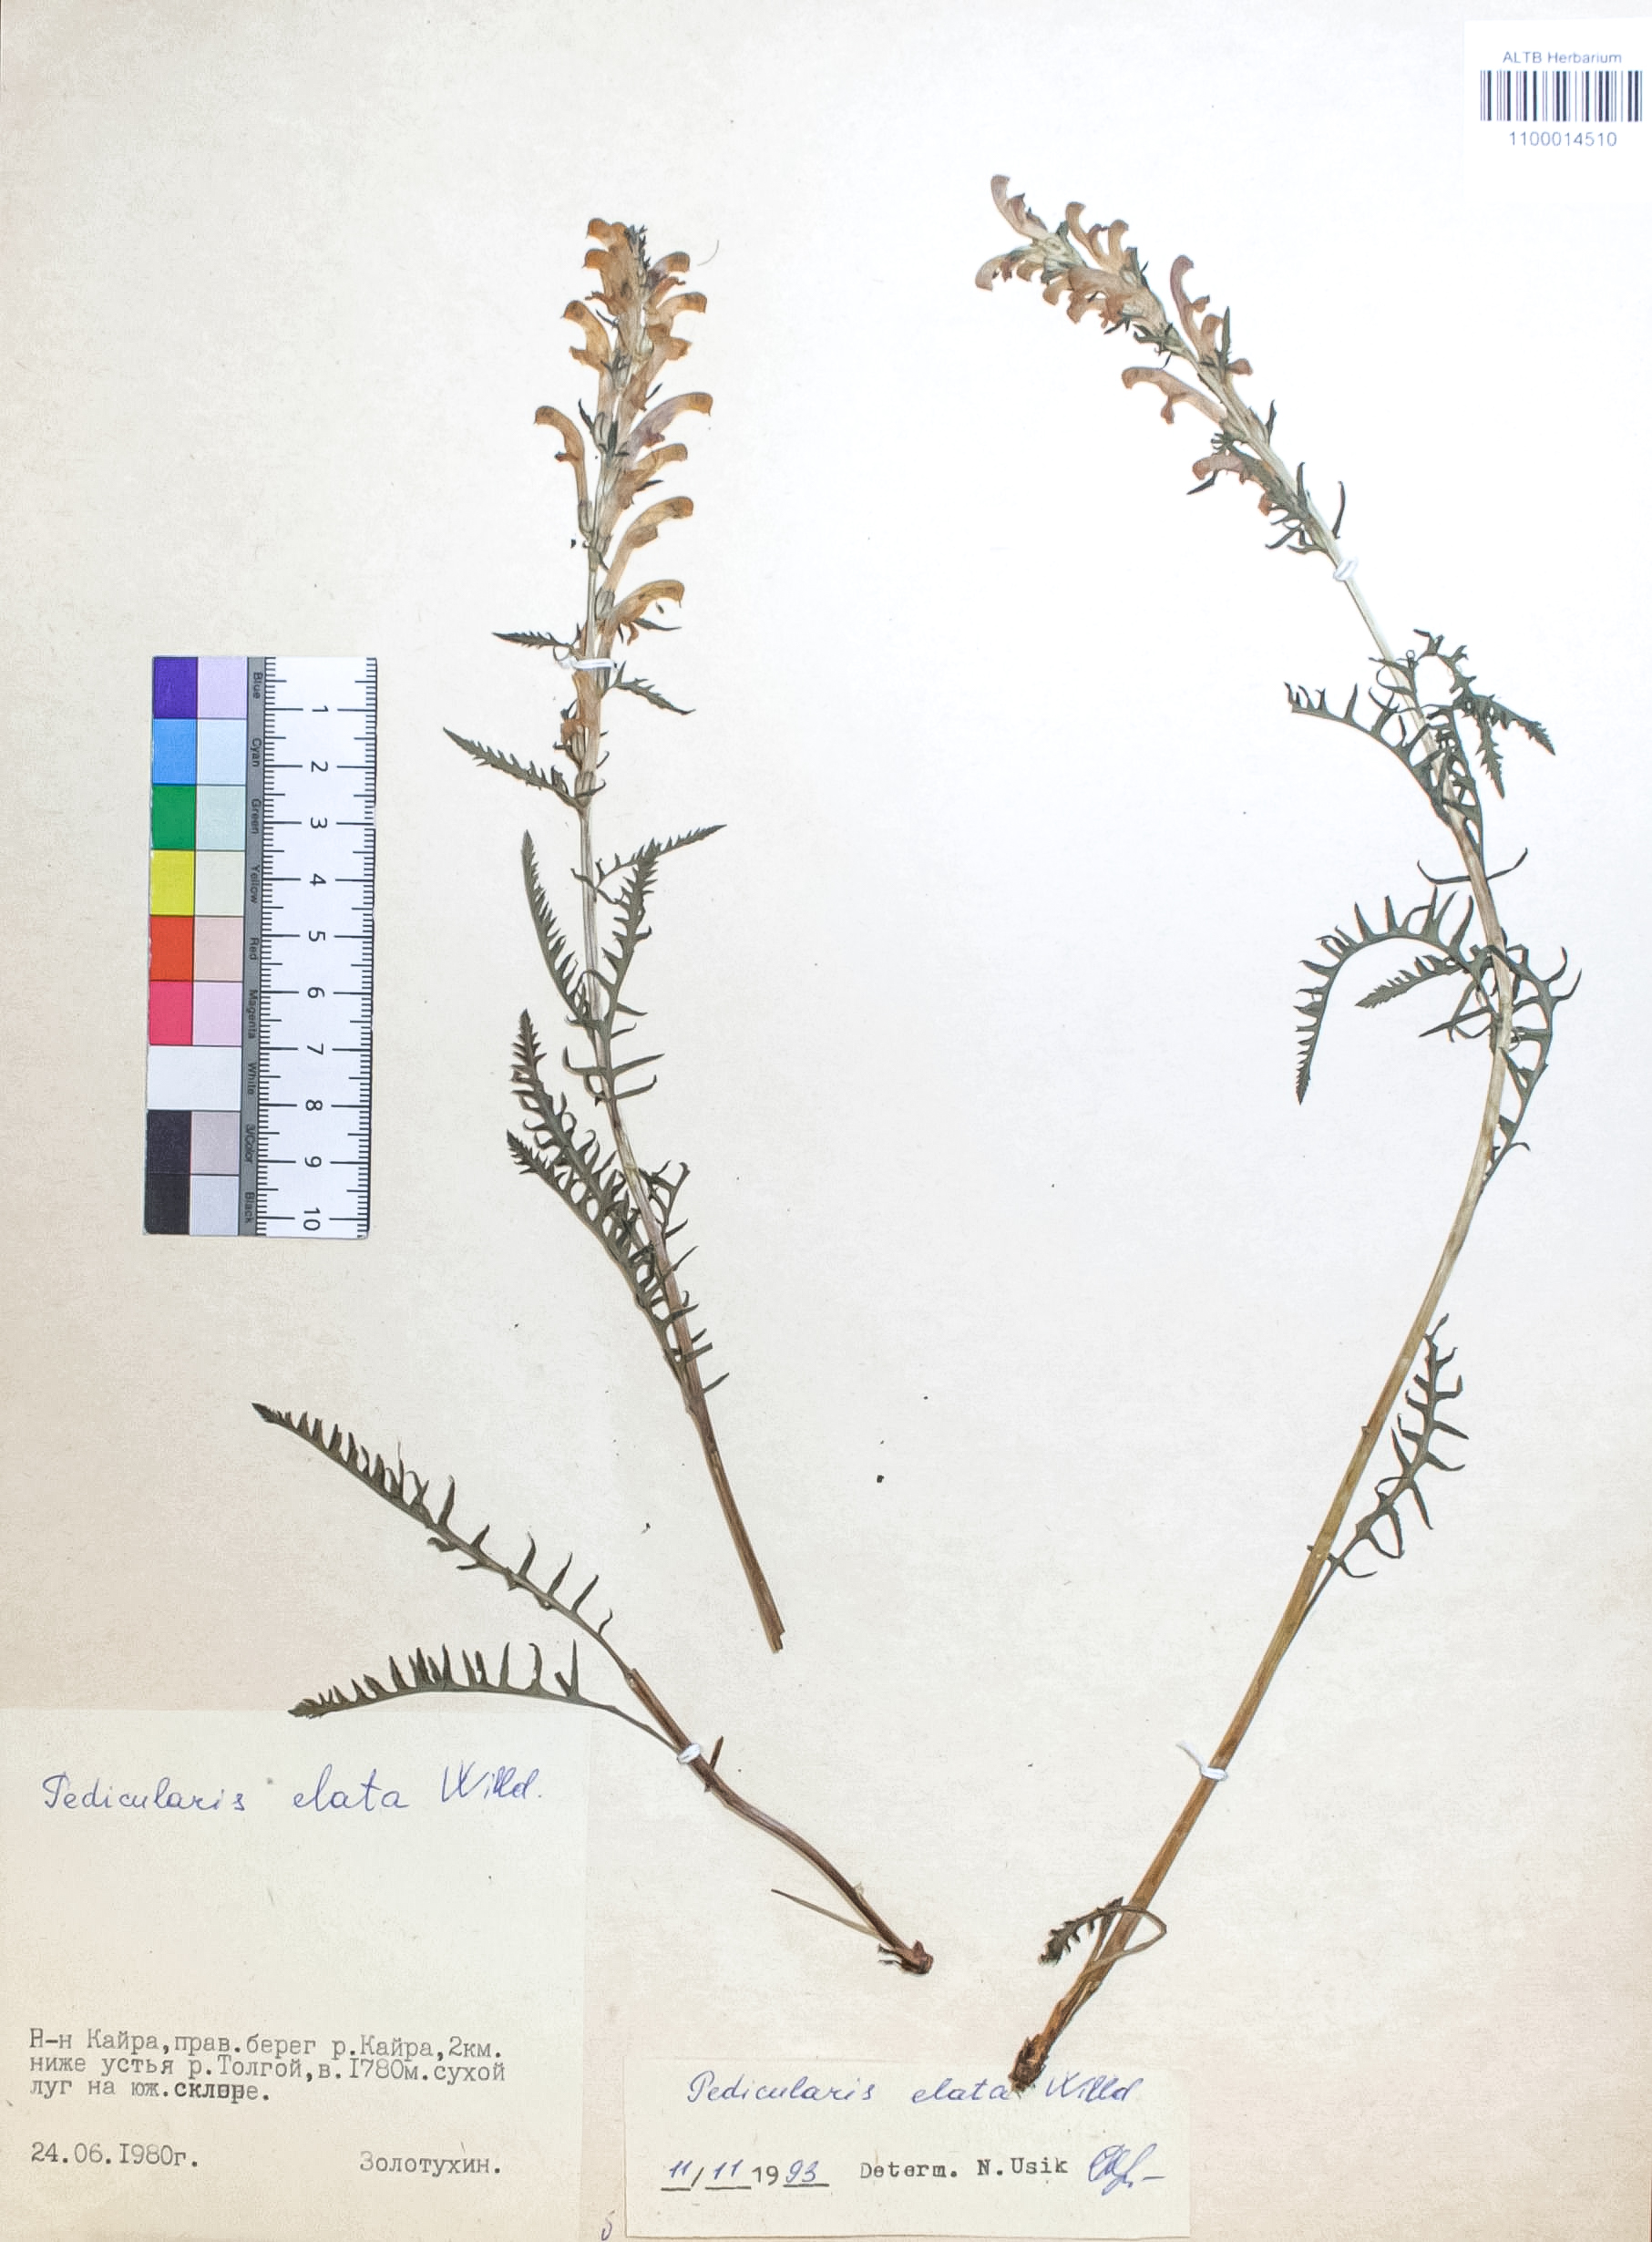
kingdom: Plantae
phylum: Tracheophyta
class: Magnoliopsida
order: Lamiales
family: Orobanchaceae
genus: Pedicularis
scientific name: Pedicularis elata
